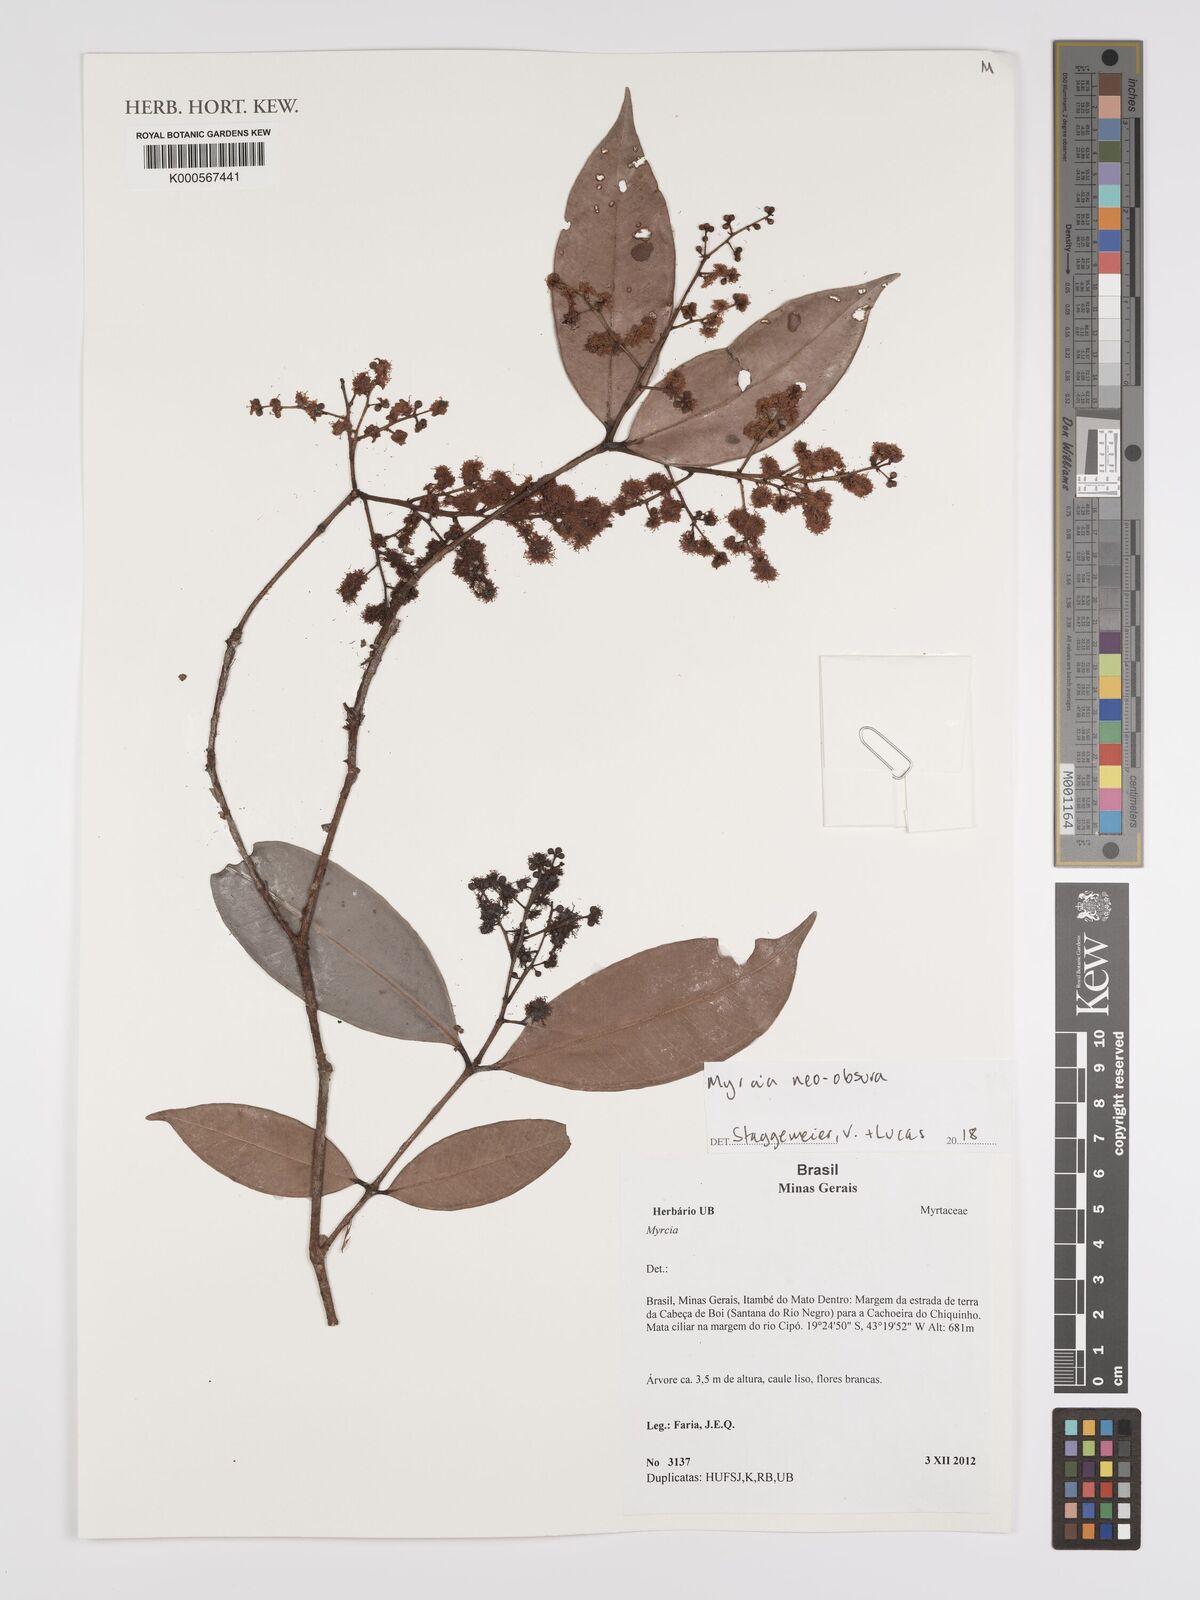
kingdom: Plantae
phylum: Tracheophyta
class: Magnoliopsida
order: Myrtales
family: Myrtaceae
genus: Myrcia
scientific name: Myrcia neoobscura
